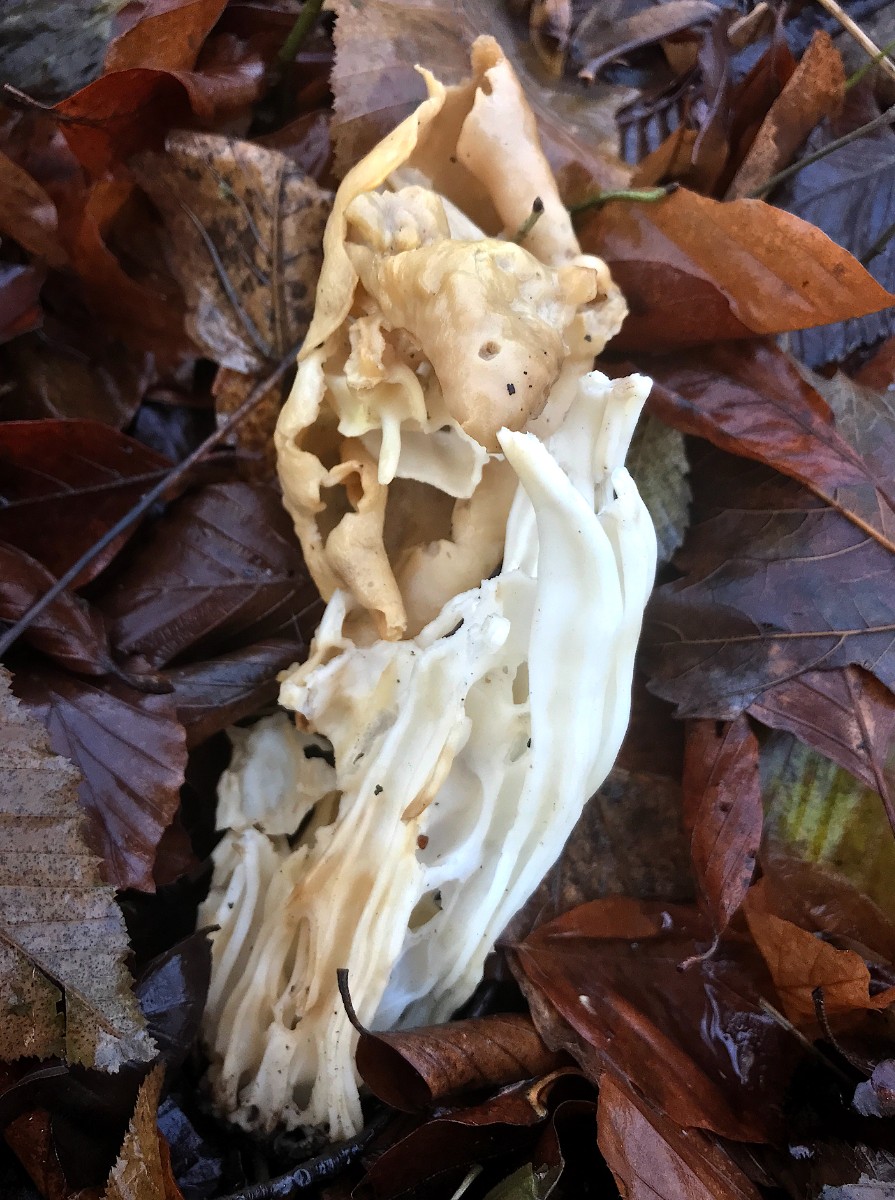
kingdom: Fungi
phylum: Ascomycota
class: Pezizomycetes
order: Pezizales
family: Helvellaceae
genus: Helvella
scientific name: Helvella crispa
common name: kruset foldhat
